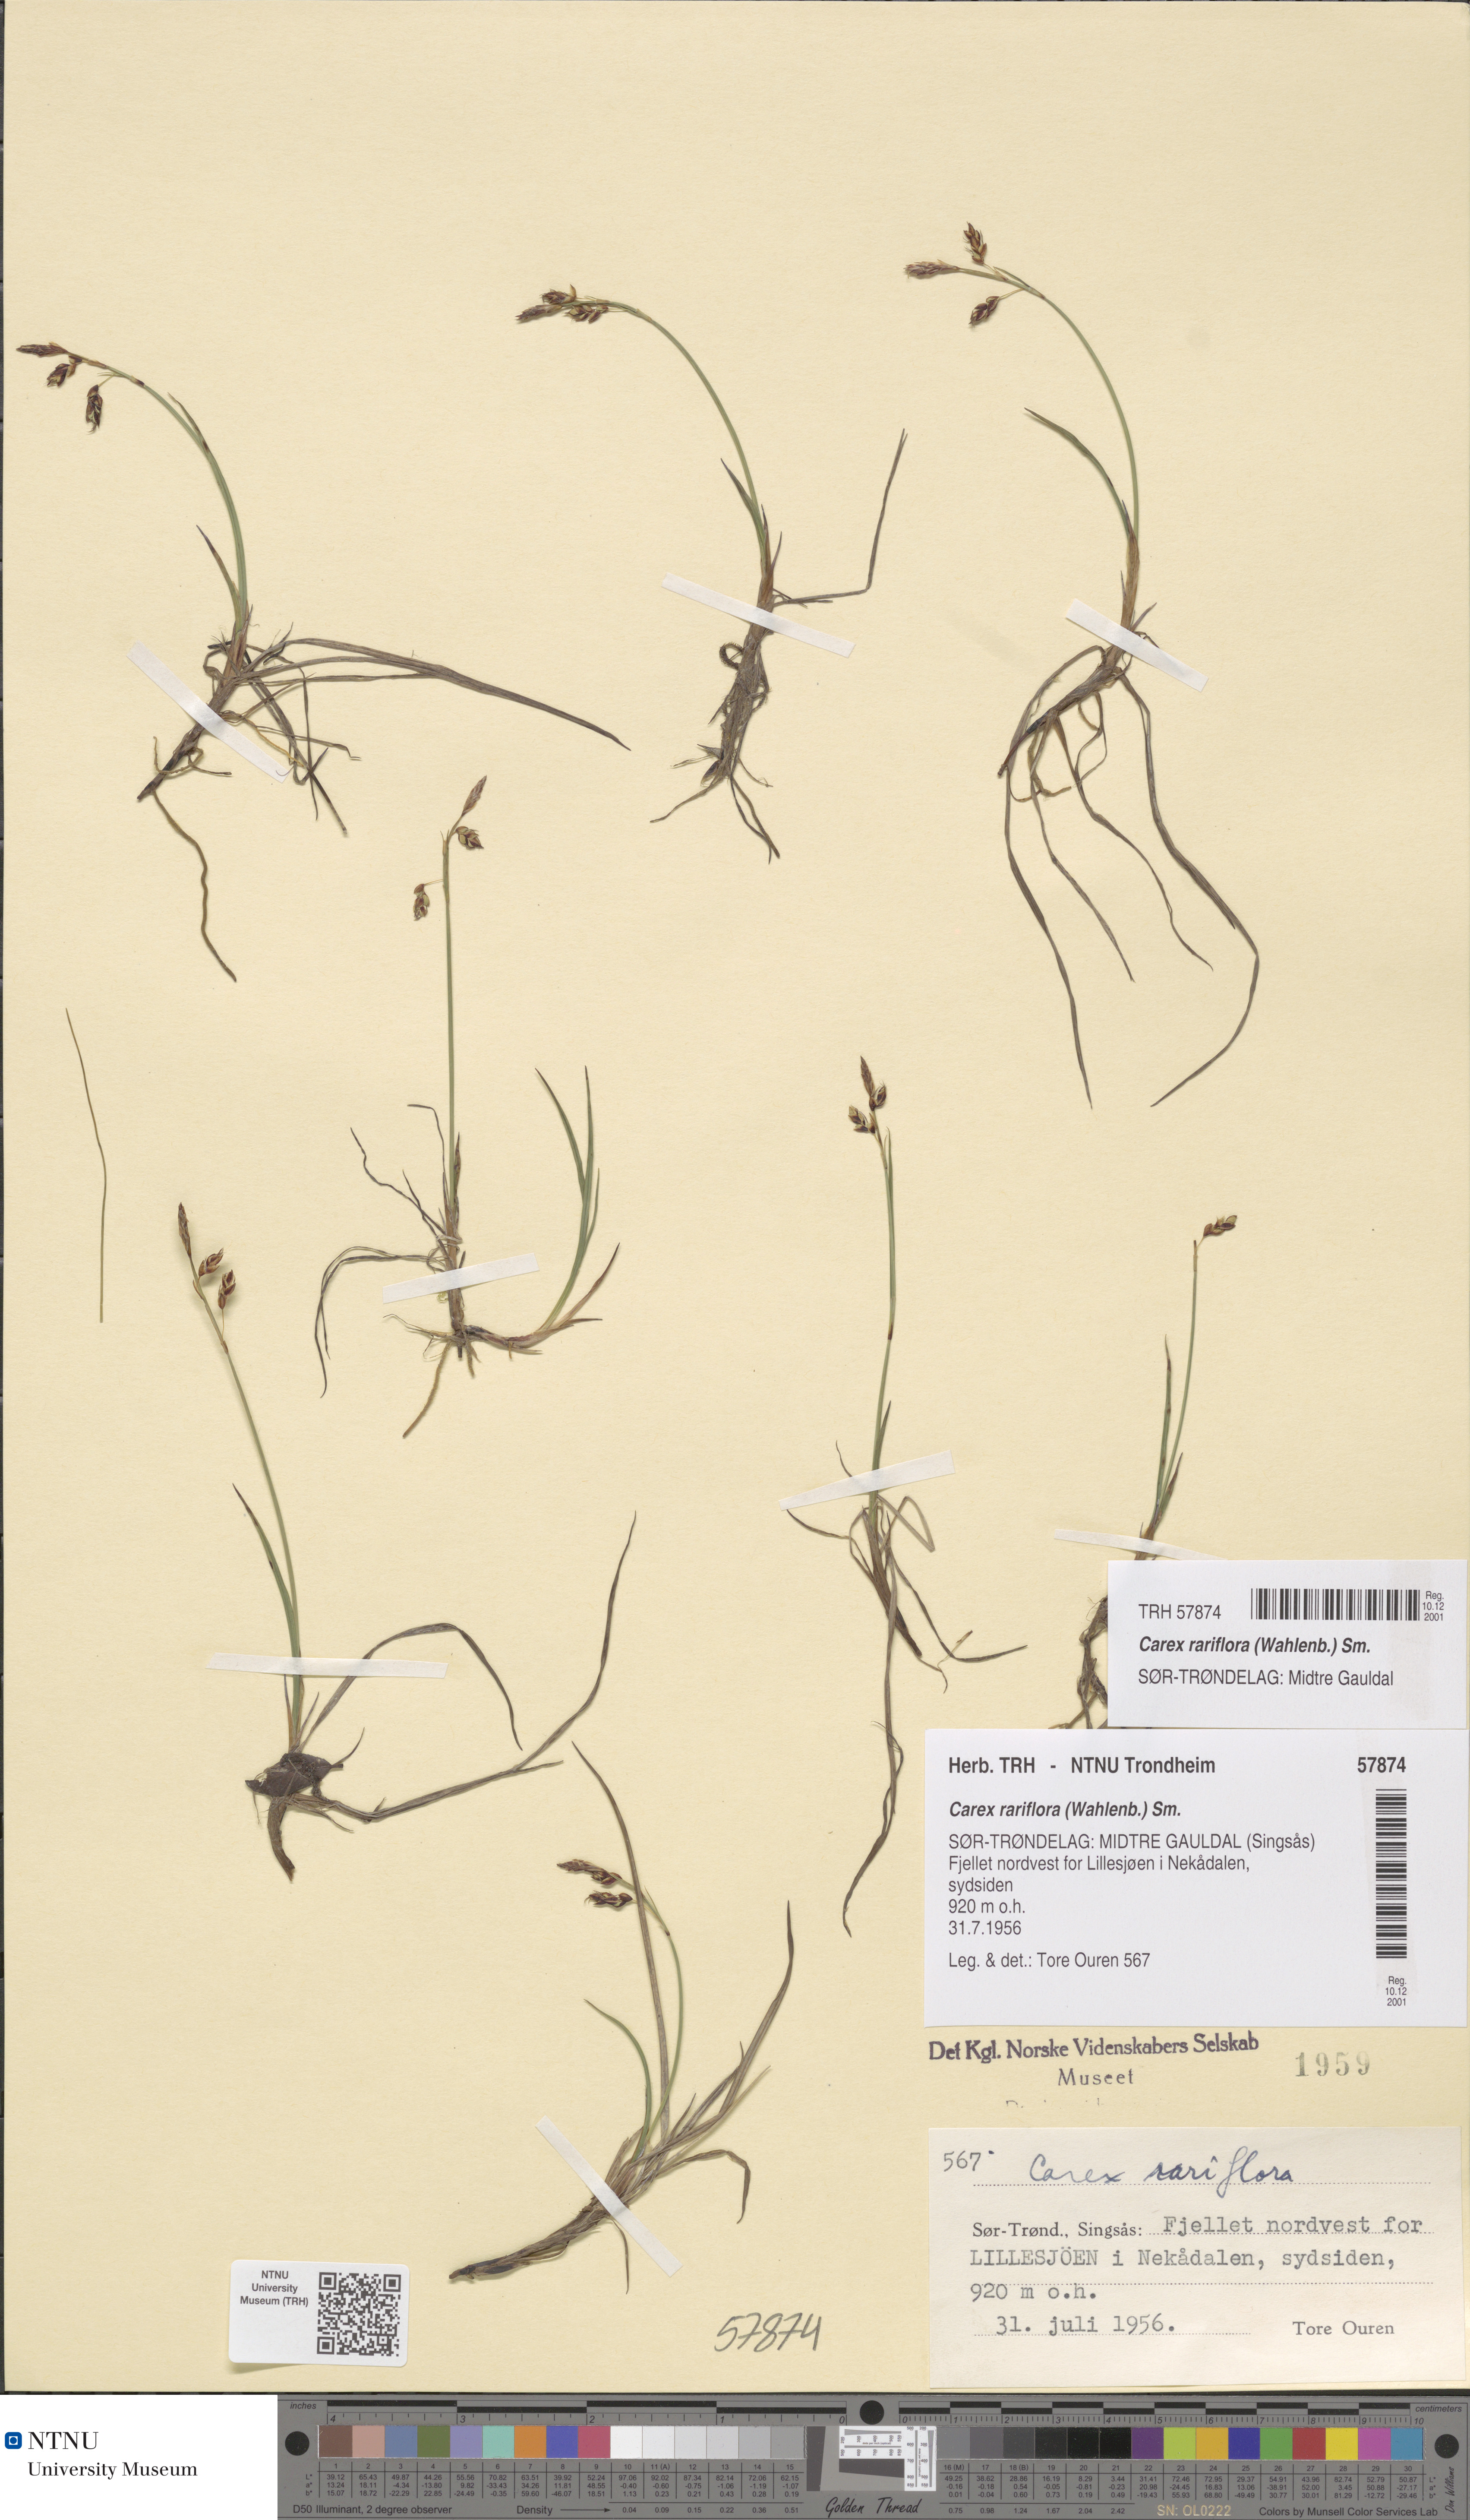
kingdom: Plantae
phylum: Tracheophyta
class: Liliopsida
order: Poales
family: Cyperaceae
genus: Carex
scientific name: Carex rariflora
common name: Loose-flowered alpine sedge
